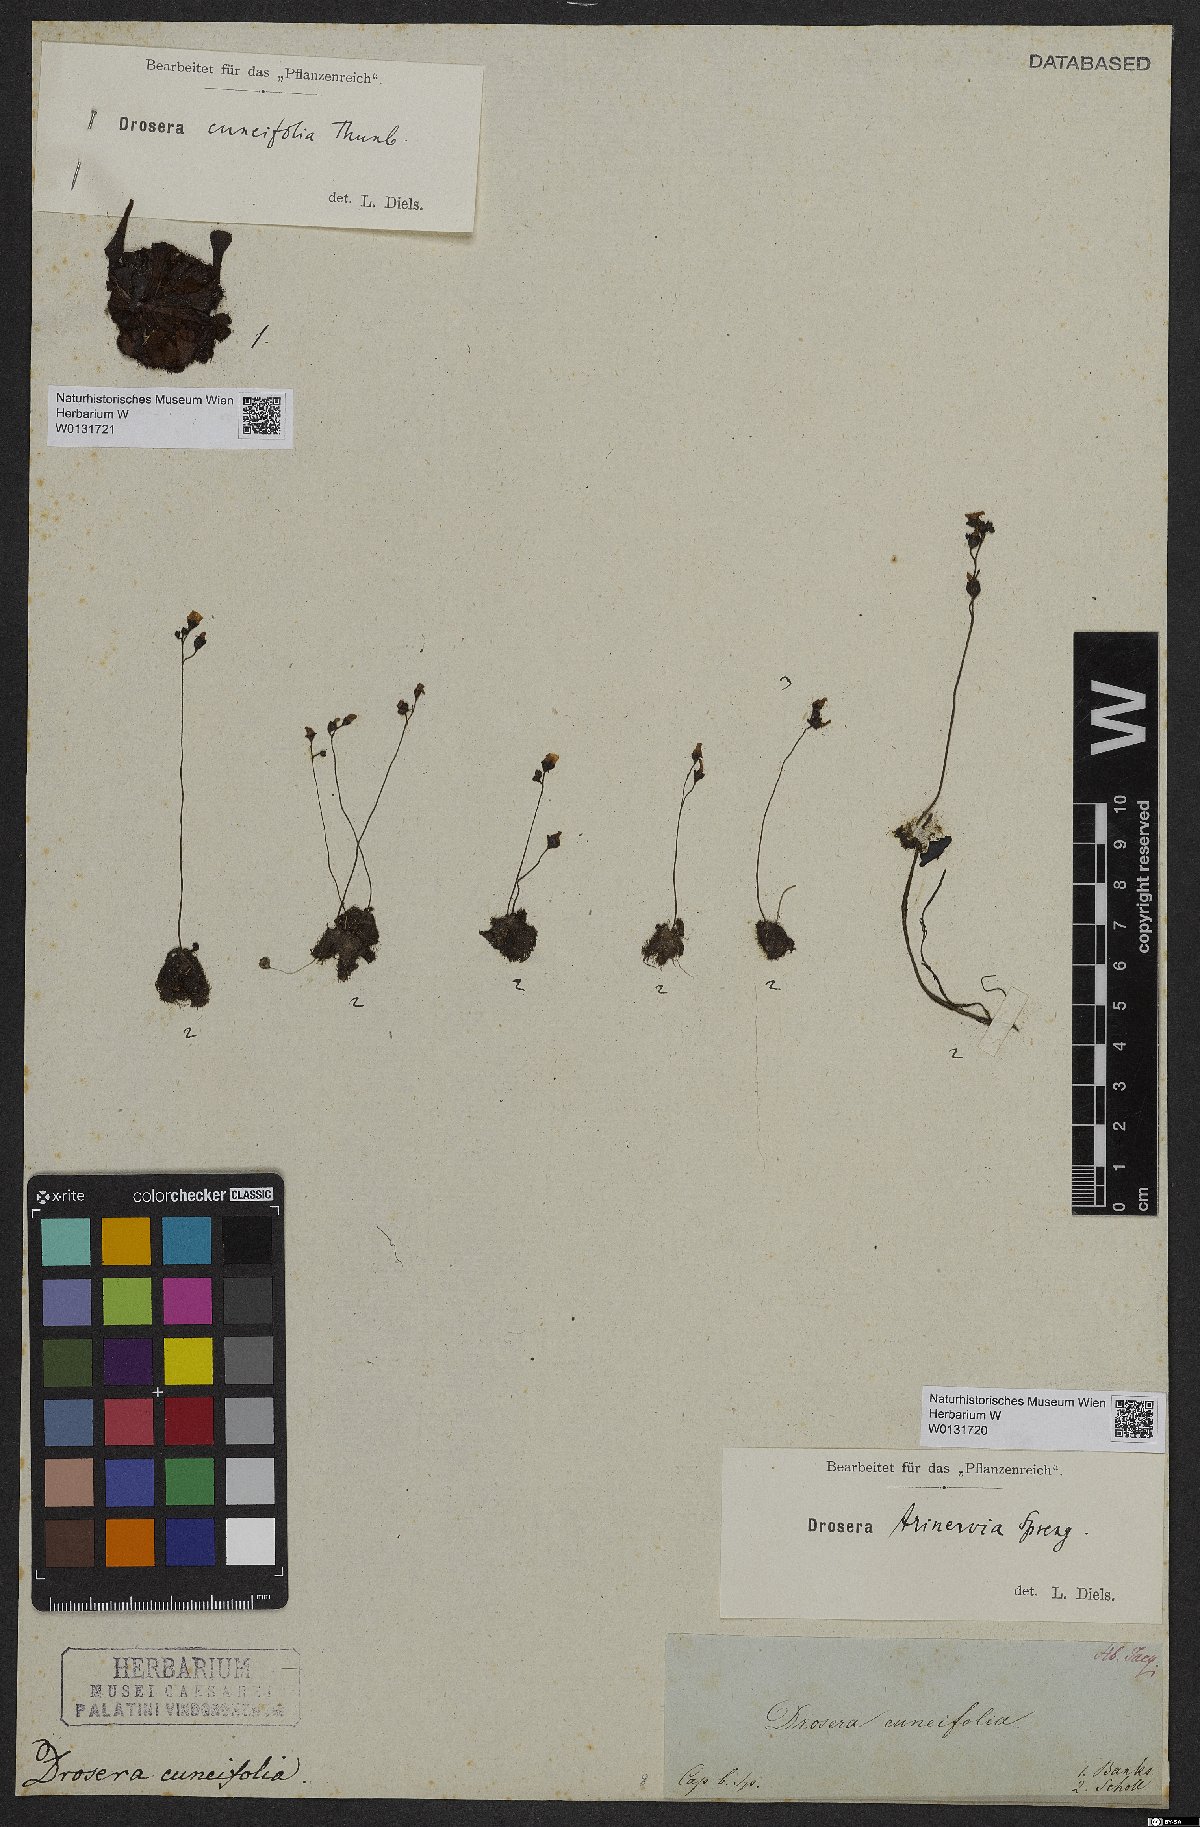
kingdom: Plantae
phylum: Tracheophyta
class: Magnoliopsida
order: Caryophyllales
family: Droseraceae
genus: Drosera
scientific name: Drosera cuneifolia
